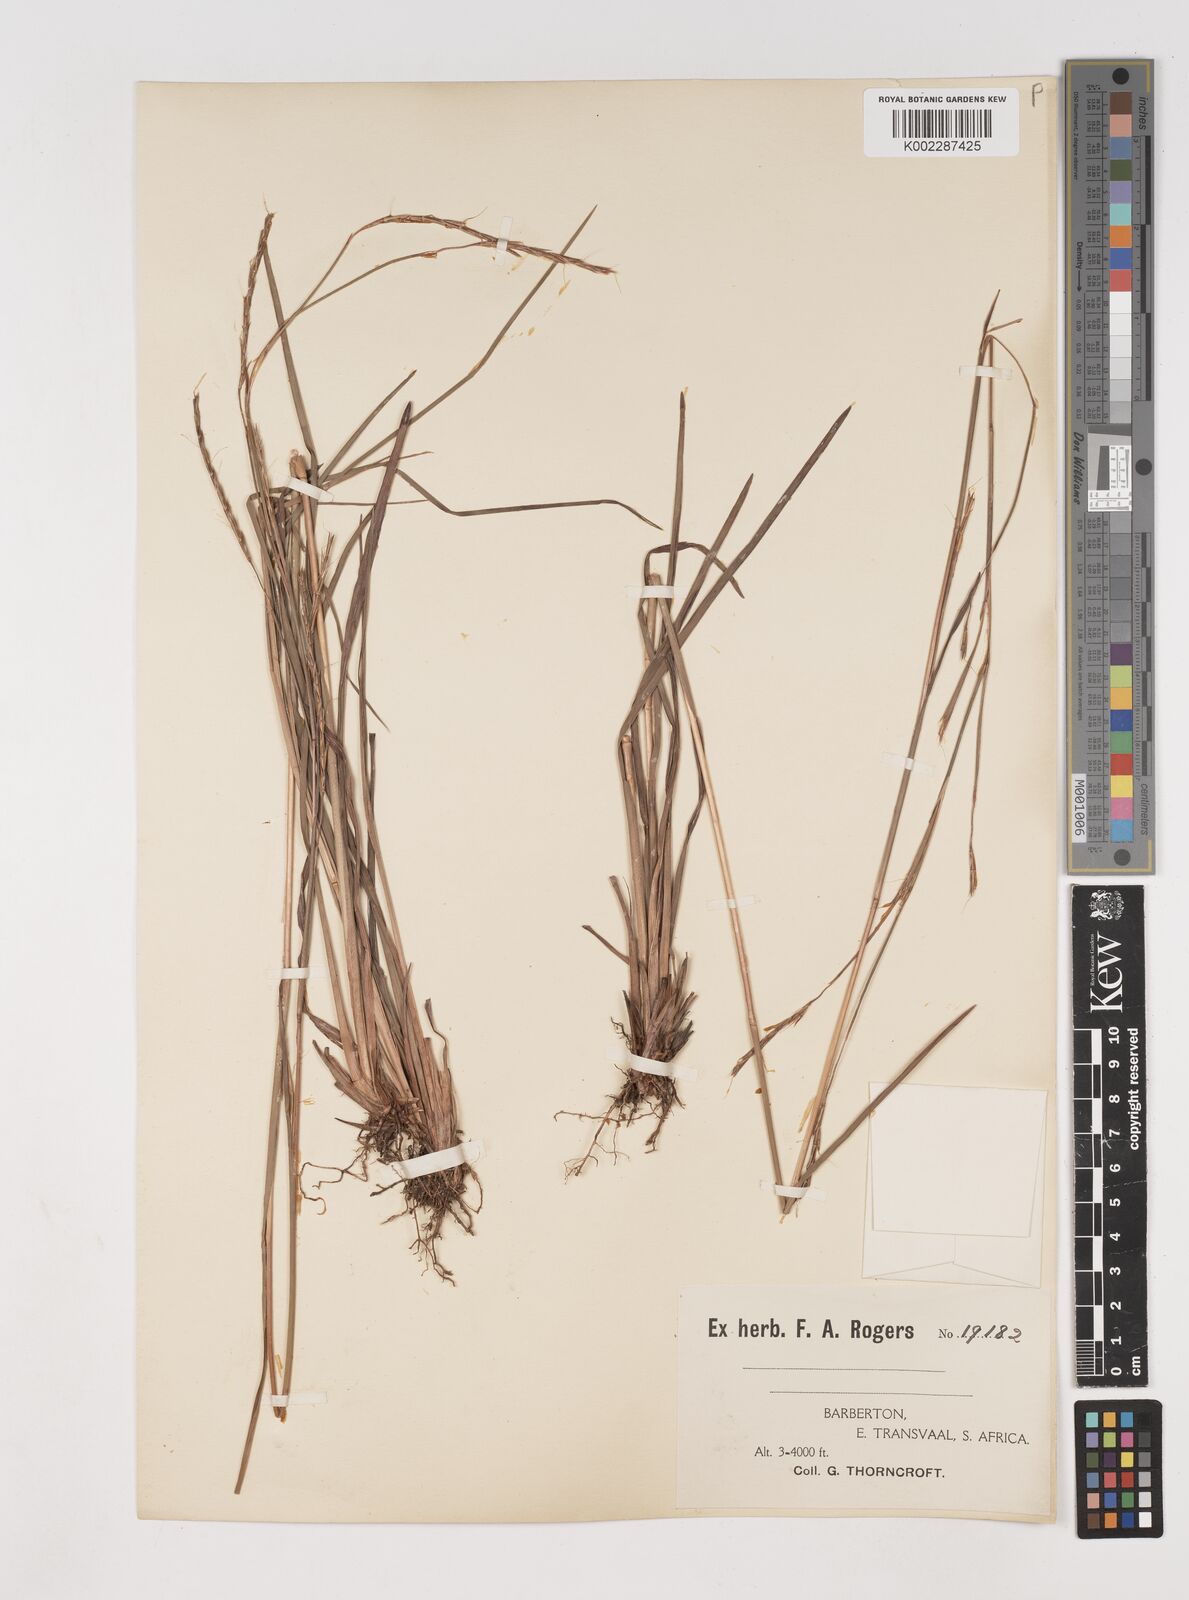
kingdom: Plantae
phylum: Tracheophyta
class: Liliopsida
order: Poales
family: Poaceae
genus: Schizachyrium
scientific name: Schizachyrium sanguineum
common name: Crimson bluestem
